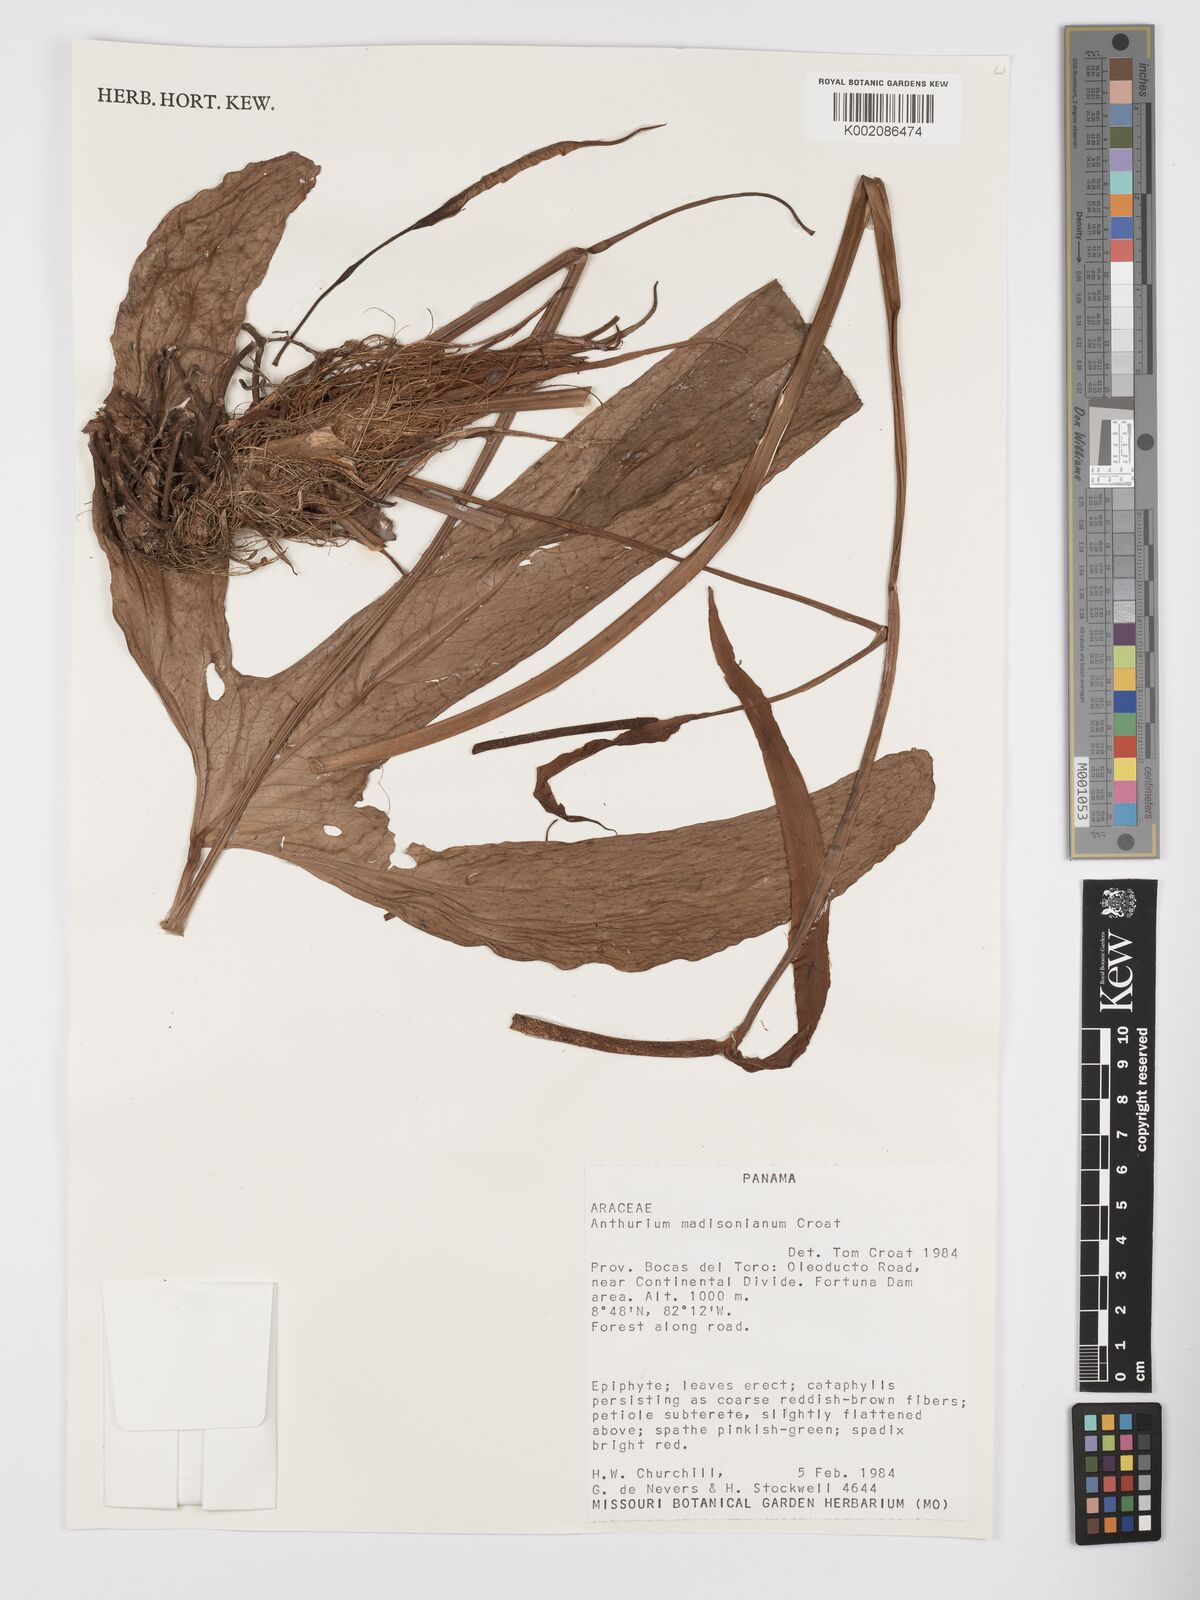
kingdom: Plantae
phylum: Tracheophyta
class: Liliopsida
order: Alismatales
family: Araceae
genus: Anthurium
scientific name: Anthurium madisonianum
